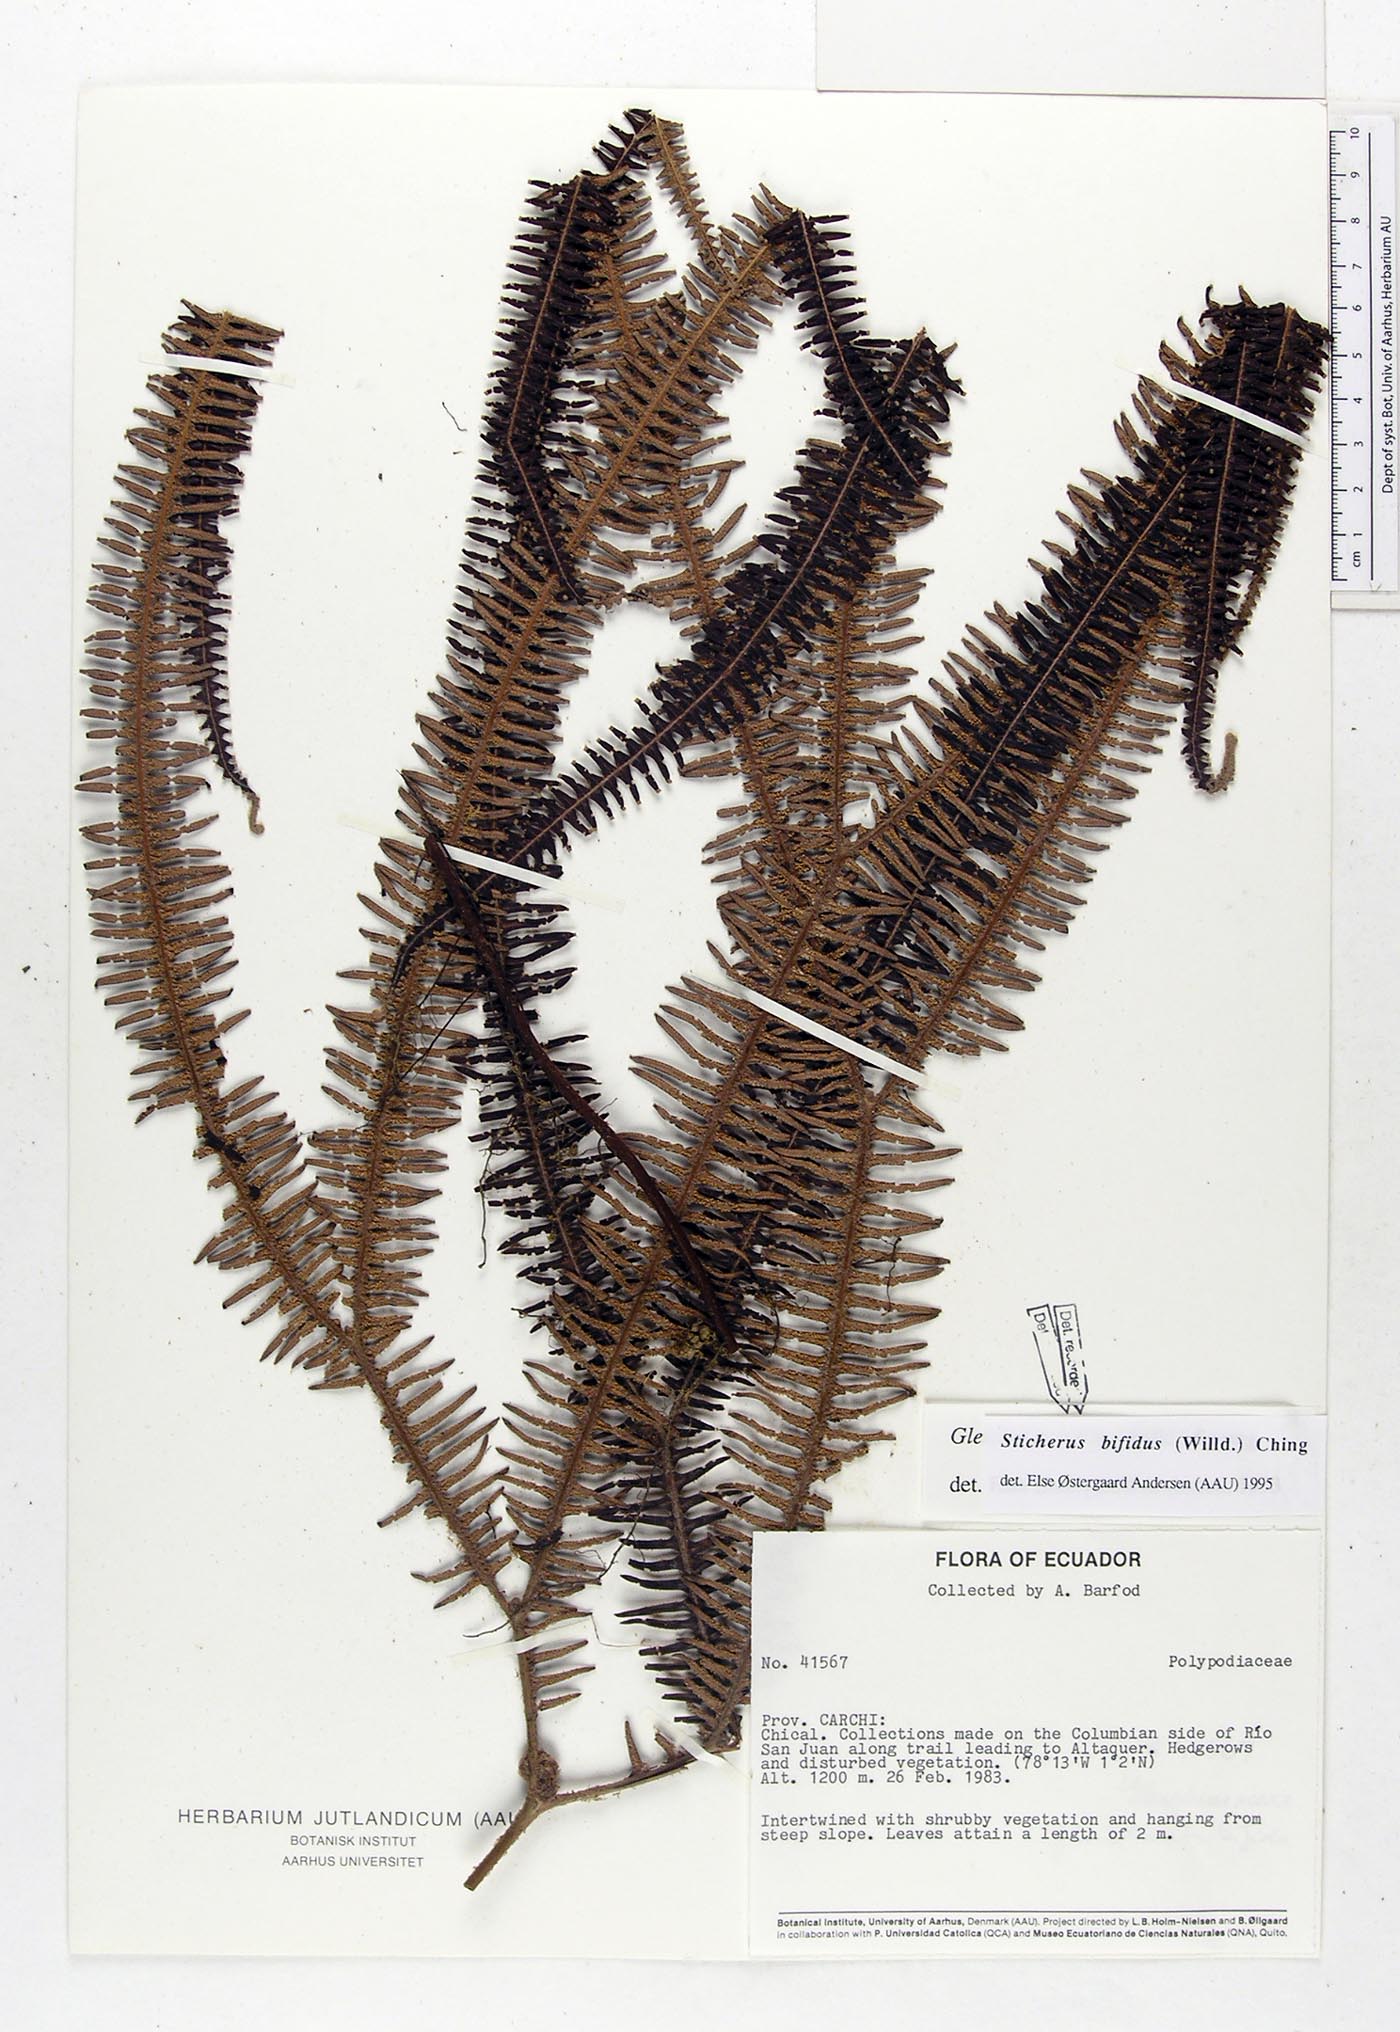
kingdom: Plantae
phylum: Tracheophyta
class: Polypodiopsida
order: Gleicheniales
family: Gleicheniaceae
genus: Sticherus
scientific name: Sticherus bifidus
